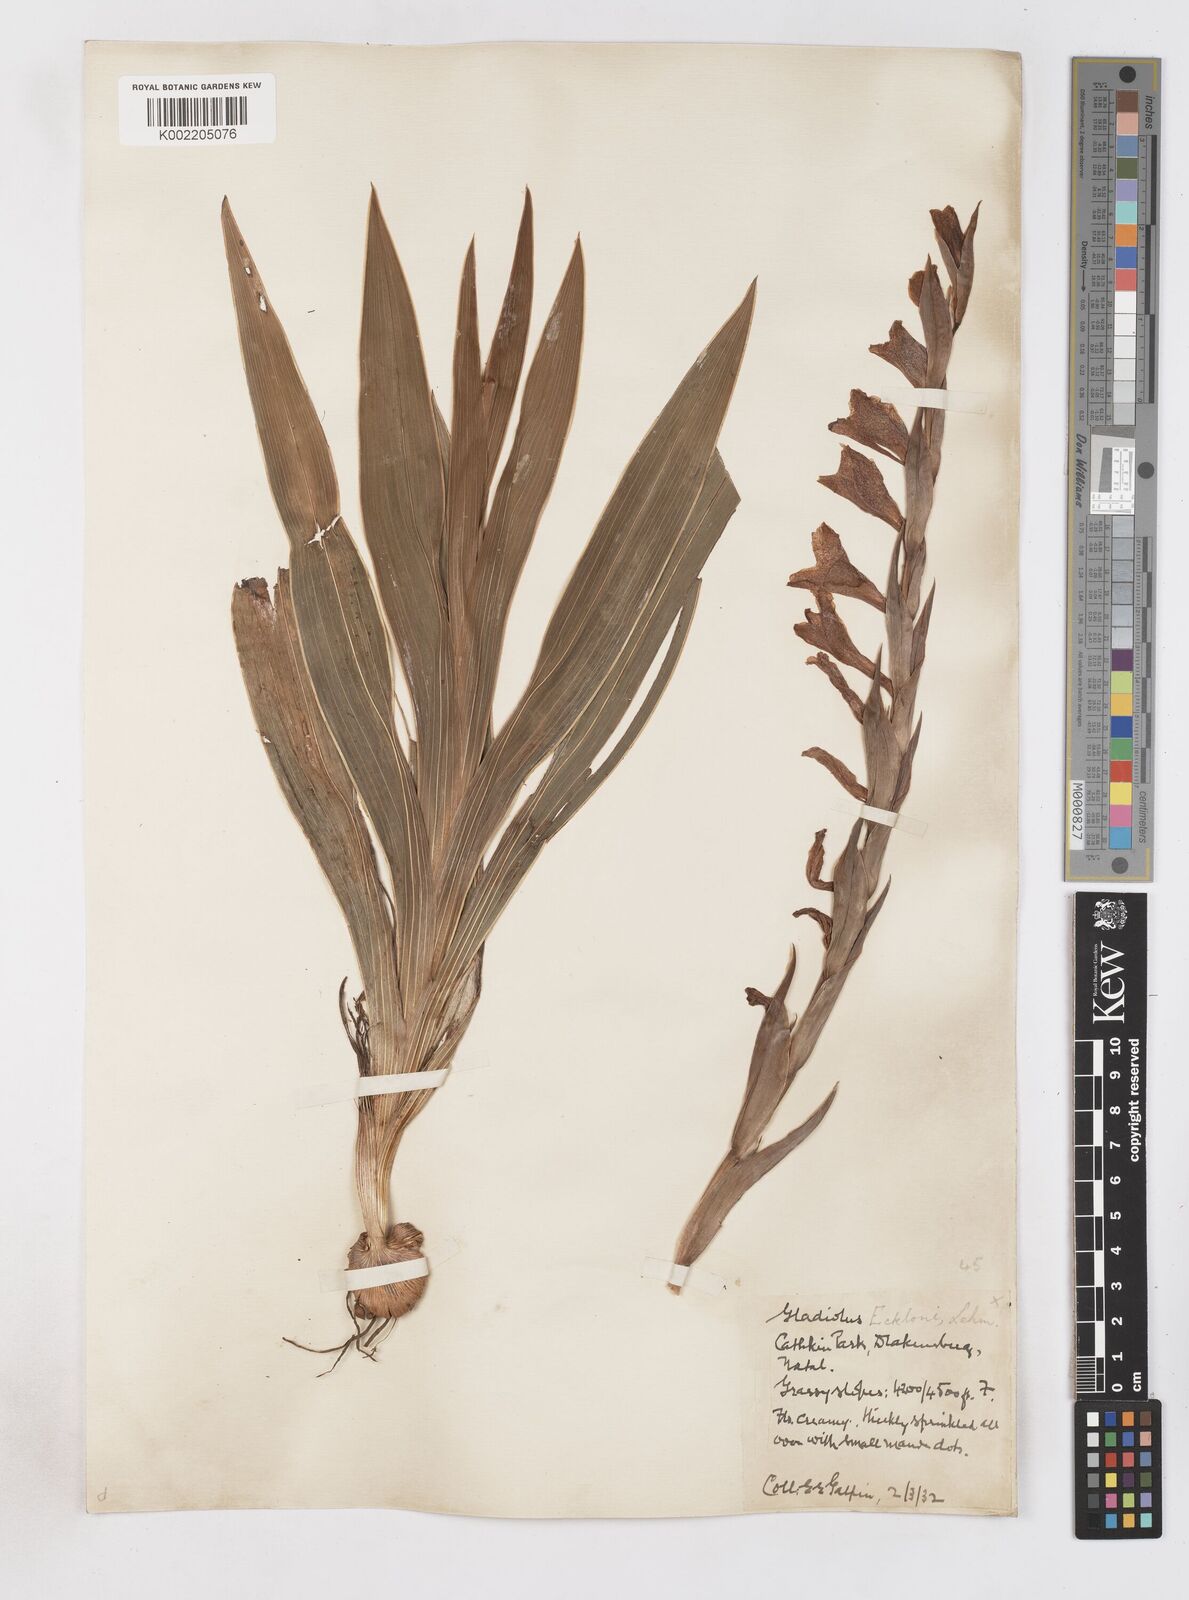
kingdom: Plantae
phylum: Tracheophyta
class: Liliopsida
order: Asparagales
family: Iridaceae
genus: Gladiolus
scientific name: Gladiolus ecklonii
